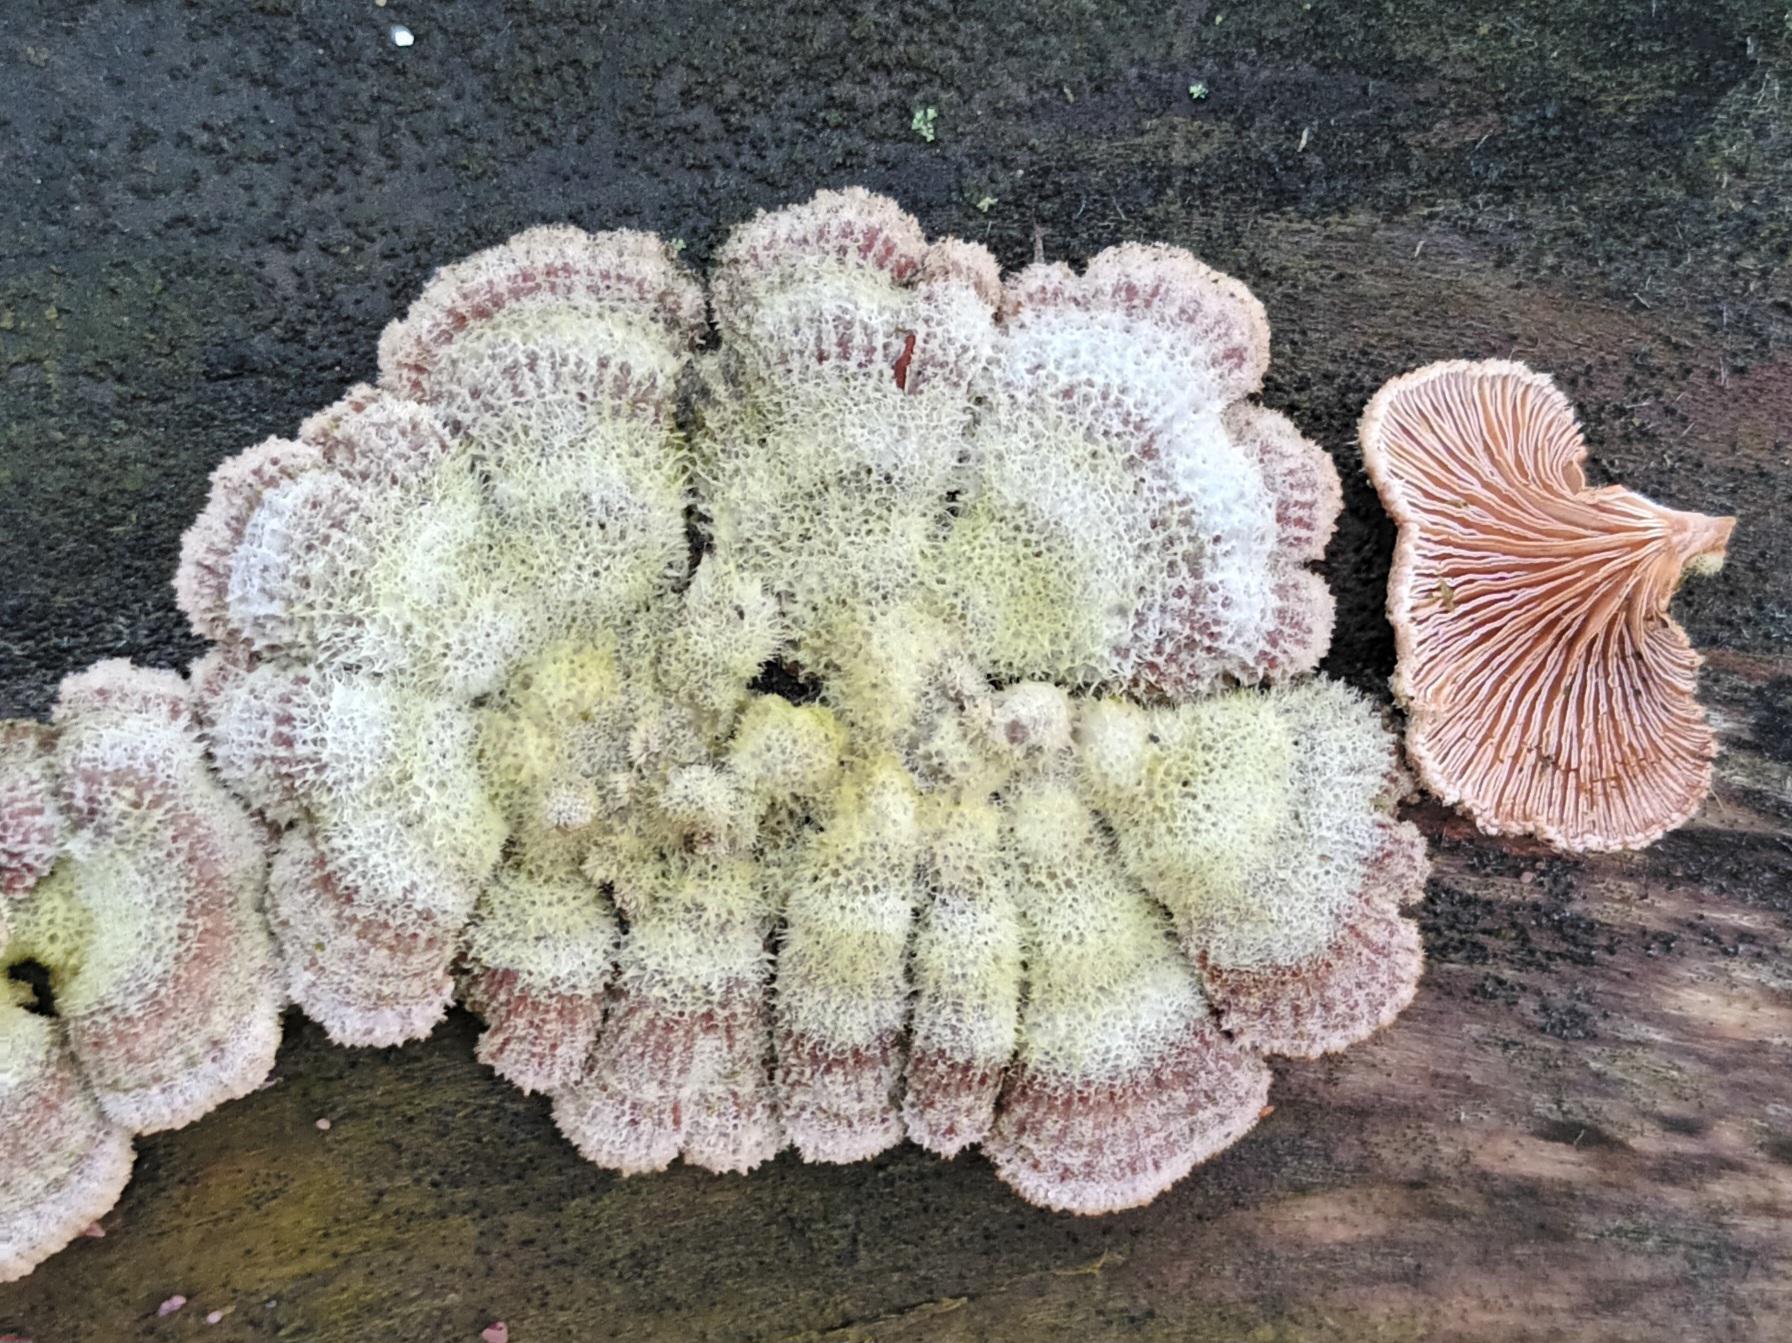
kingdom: Fungi
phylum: Basidiomycota
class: Agaricomycetes
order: Agaricales
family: Schizophyllaceae
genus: Schizophyllum
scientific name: Schizophyllum commune
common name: Kløvblad
